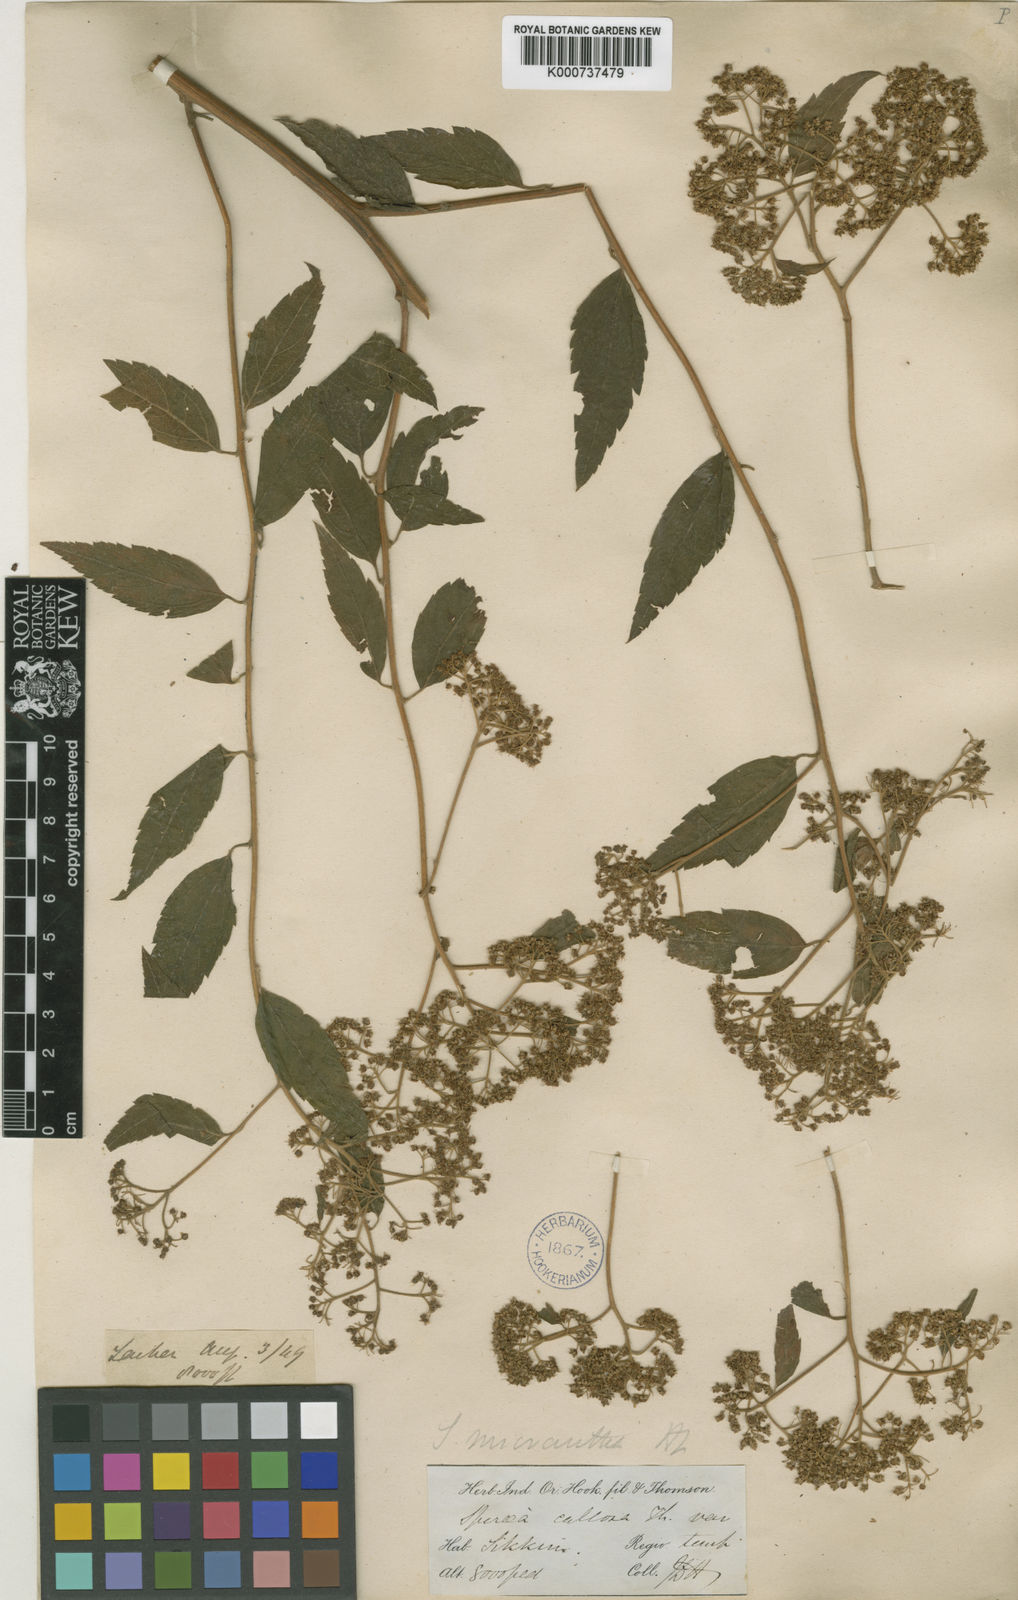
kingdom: Plantae
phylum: Tracheophyta
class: Magnoliopsida
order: Rosales
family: Rosaceae
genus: Spiraea
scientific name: Spiraea japonica
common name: Japanese spiraea
